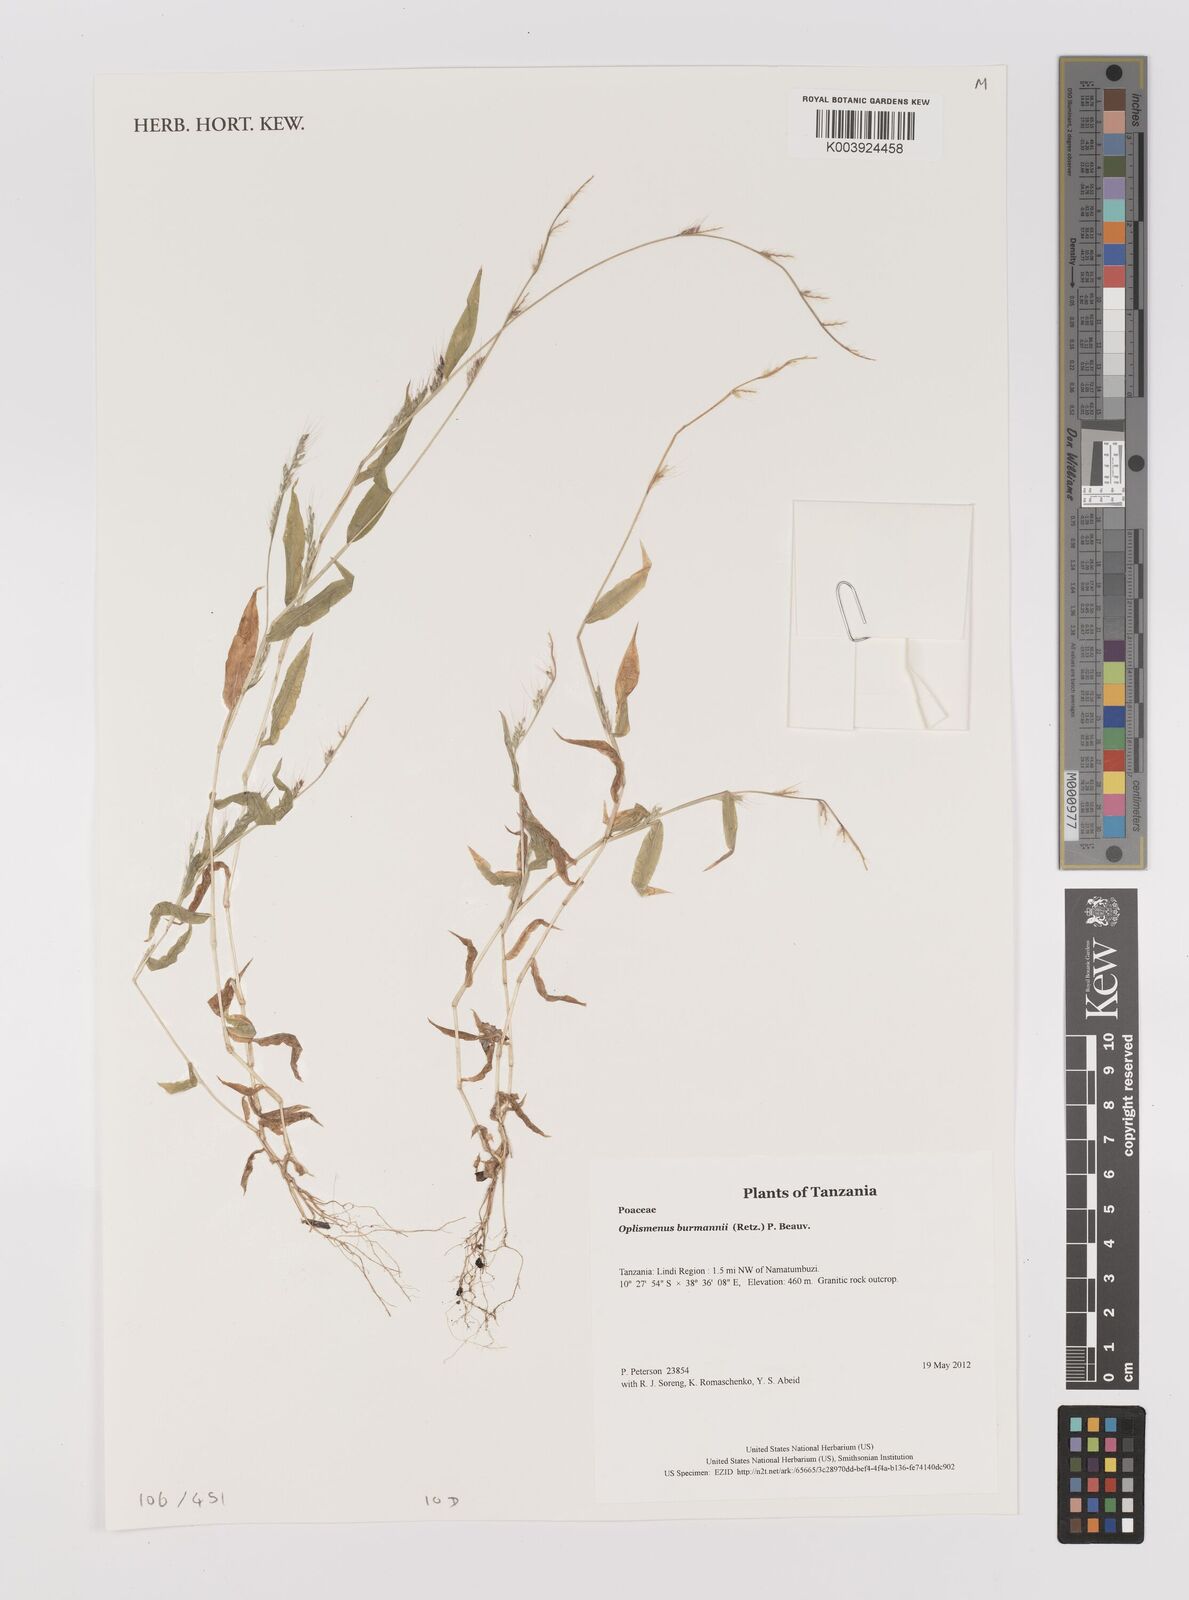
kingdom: Plantae
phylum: Tracheophyta
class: Liliopsida
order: Poales
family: Poaceae
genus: Oplismenus
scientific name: Oplismenus burmanni
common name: Burmann's basketgrass
